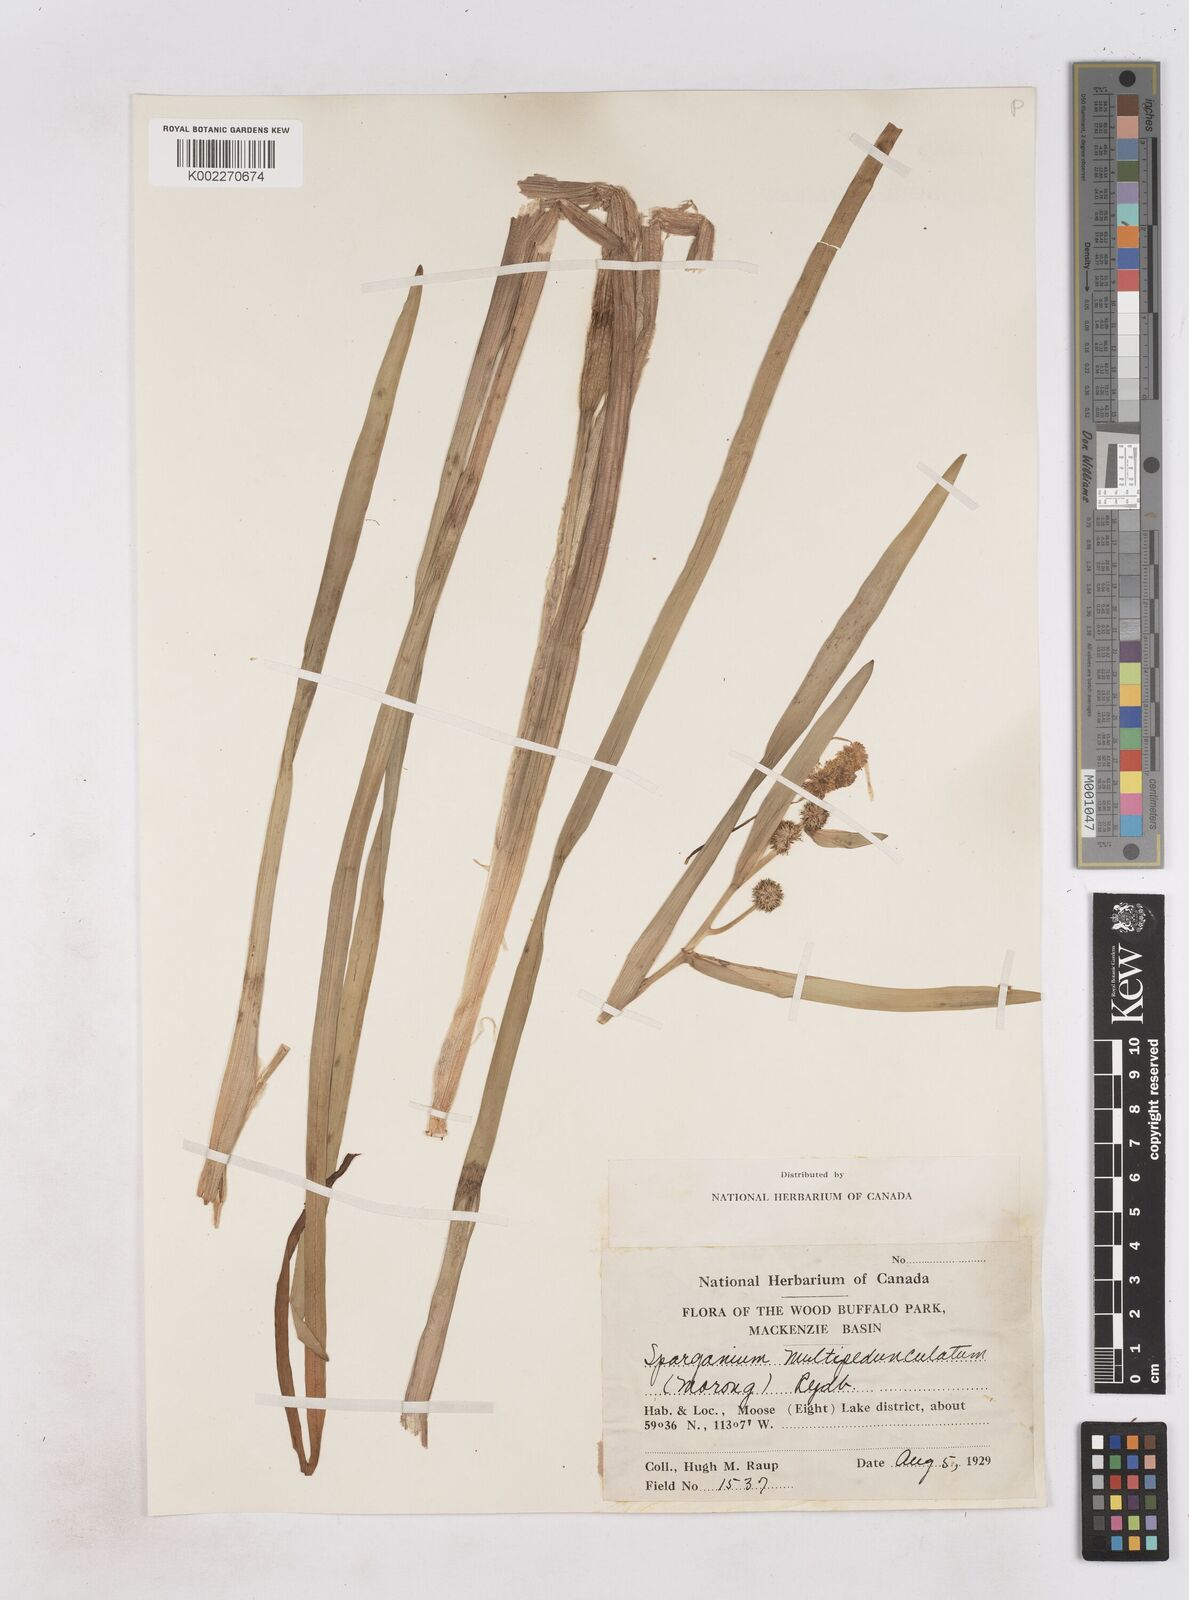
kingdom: Plantae
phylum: Tracheophyta
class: Liliopsida
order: Poales
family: Typhaceae
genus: Sparganium
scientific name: Sparganium emersum
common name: Unbranched bur-reed
